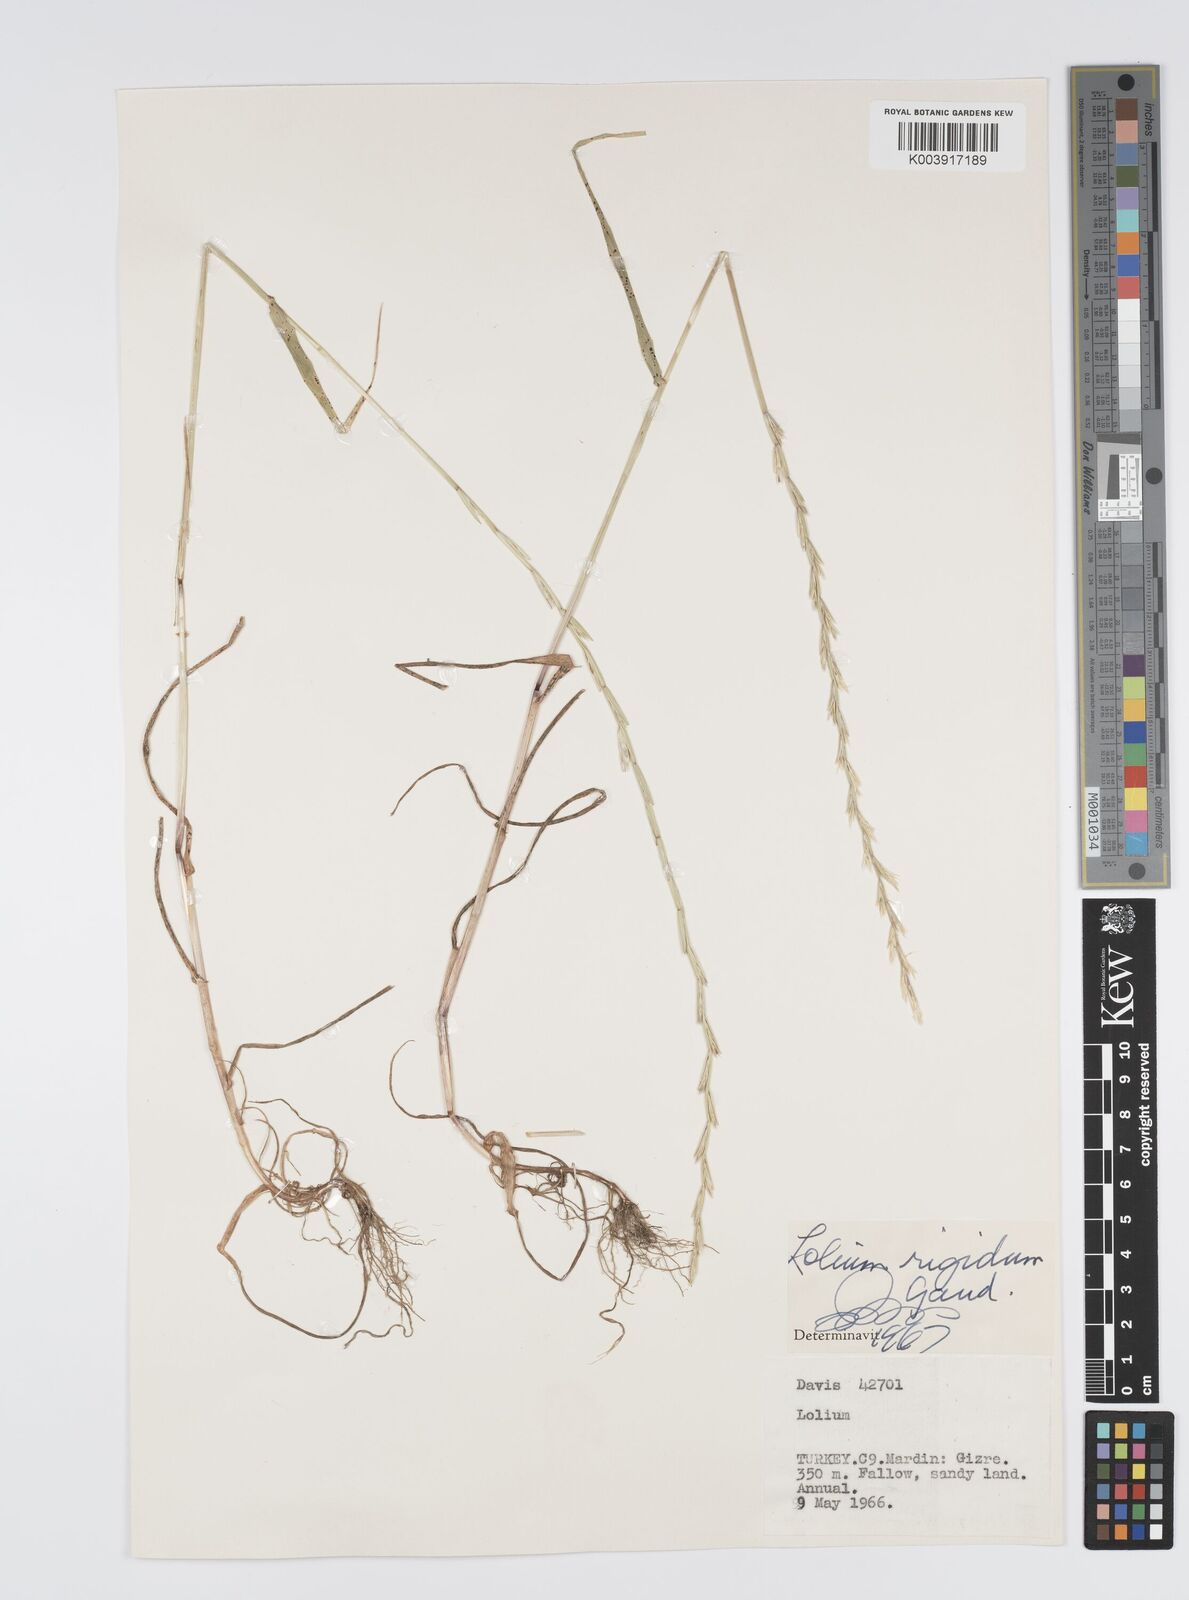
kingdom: Plantae
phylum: Tracheophyta
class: Liliopsida
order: Poales
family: Poaceae
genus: Lolium
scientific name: Lolium rigidum
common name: Wimmera ryegrass
